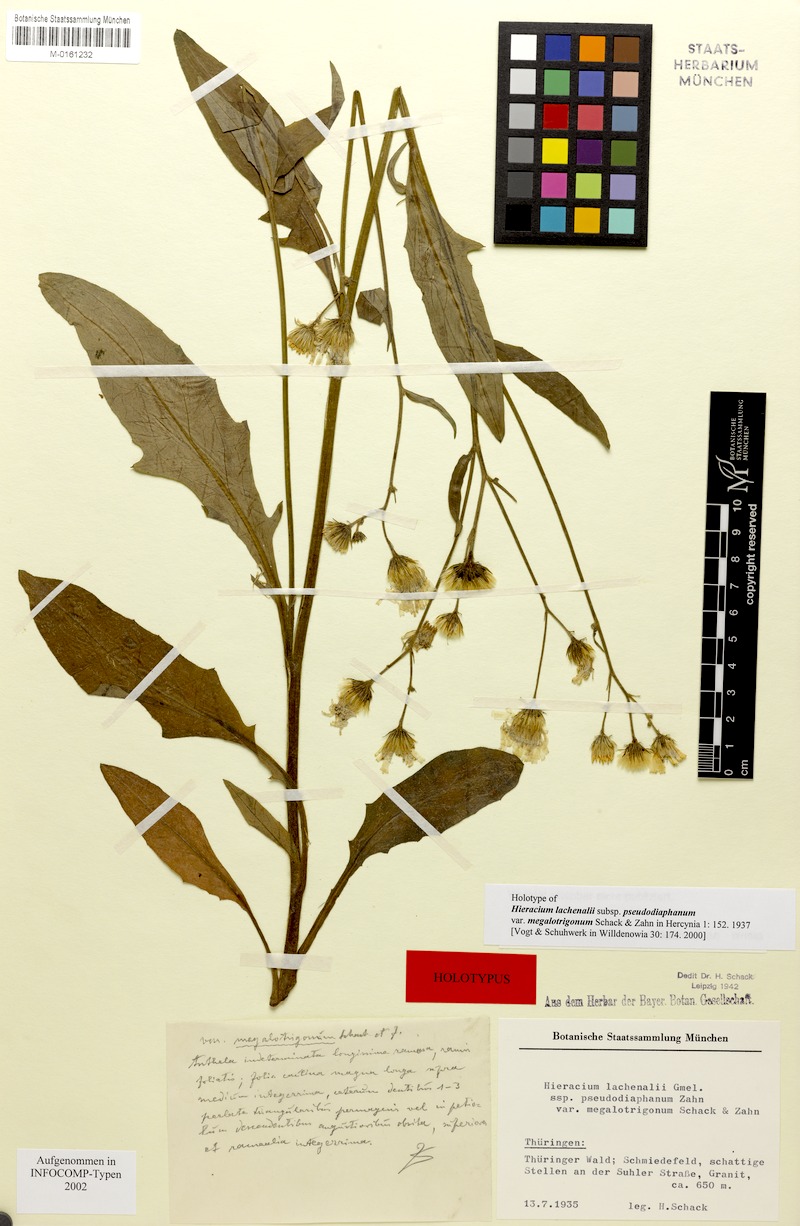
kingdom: Plantae
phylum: Tracheophyta
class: Magnoliopsida
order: Asterales
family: Asteraceae
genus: Hieracium
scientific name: Hieracium lachenalii
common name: Common hawkweed
